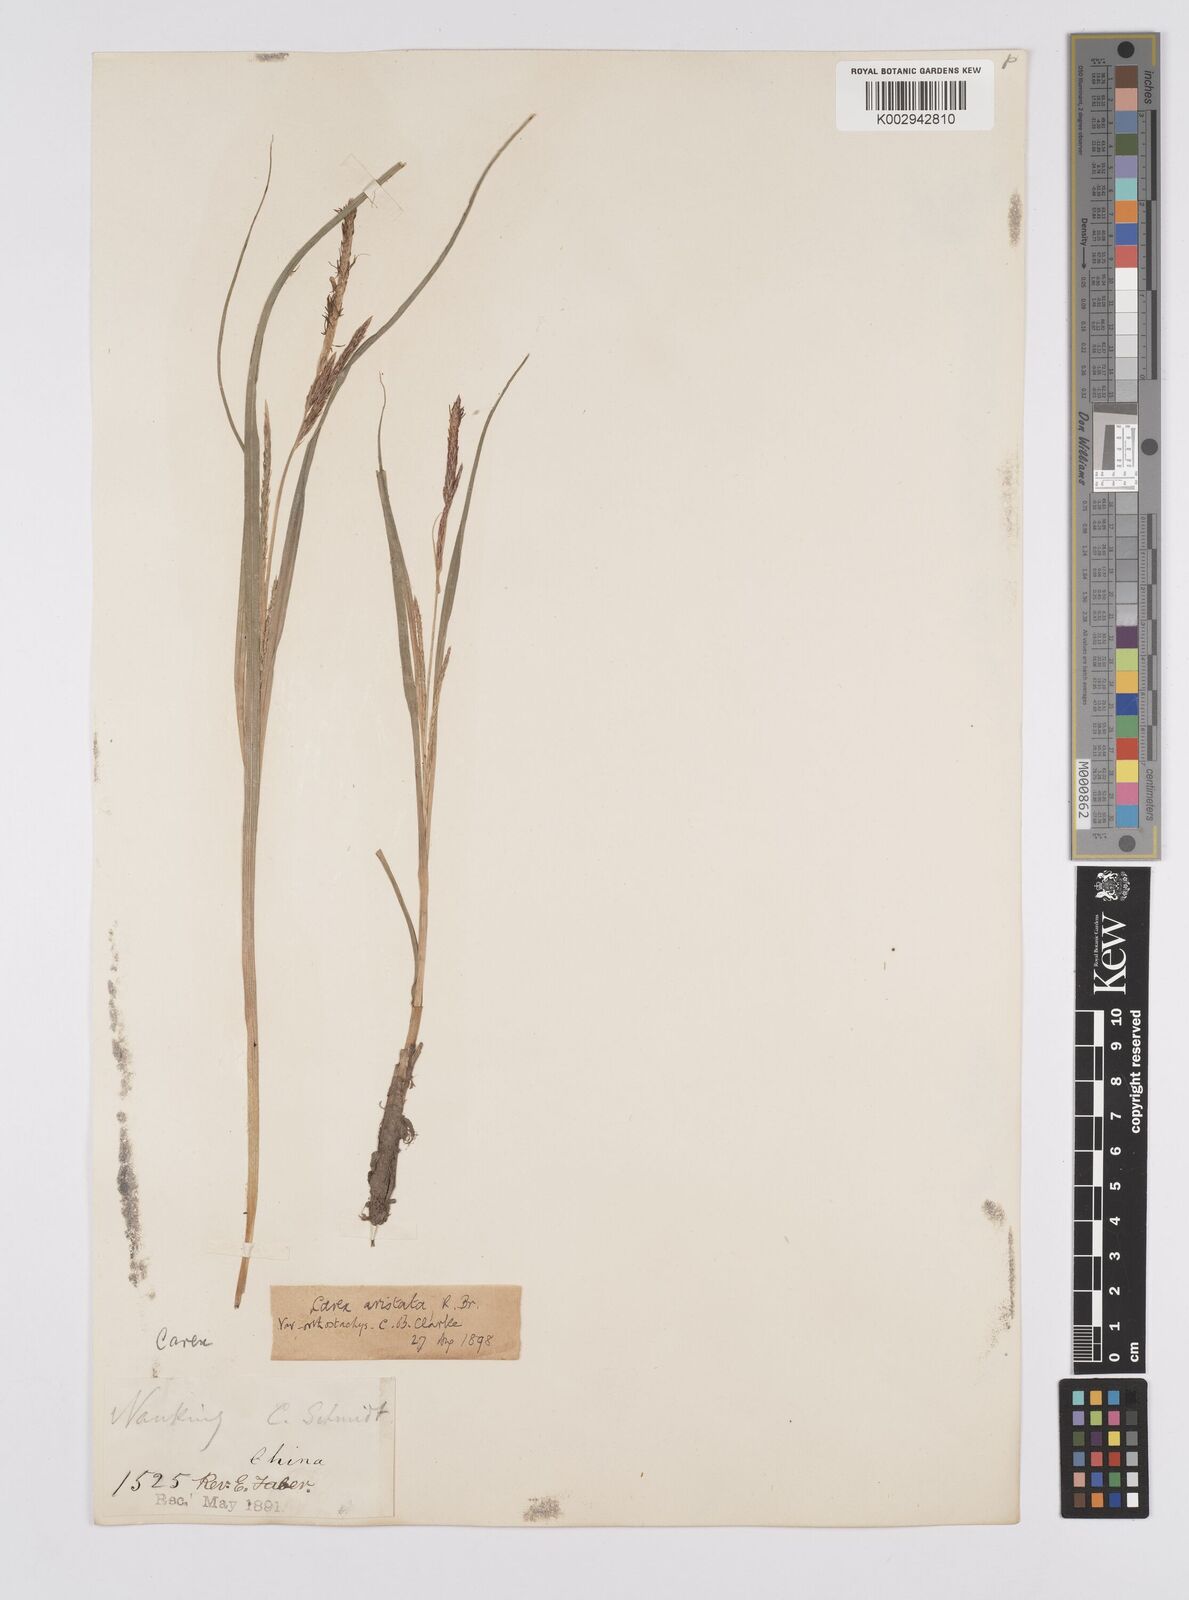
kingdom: Plantae
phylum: Tracheophyta
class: Liliopsida
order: Poales
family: Cyperaceae
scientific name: Cyperaceae
